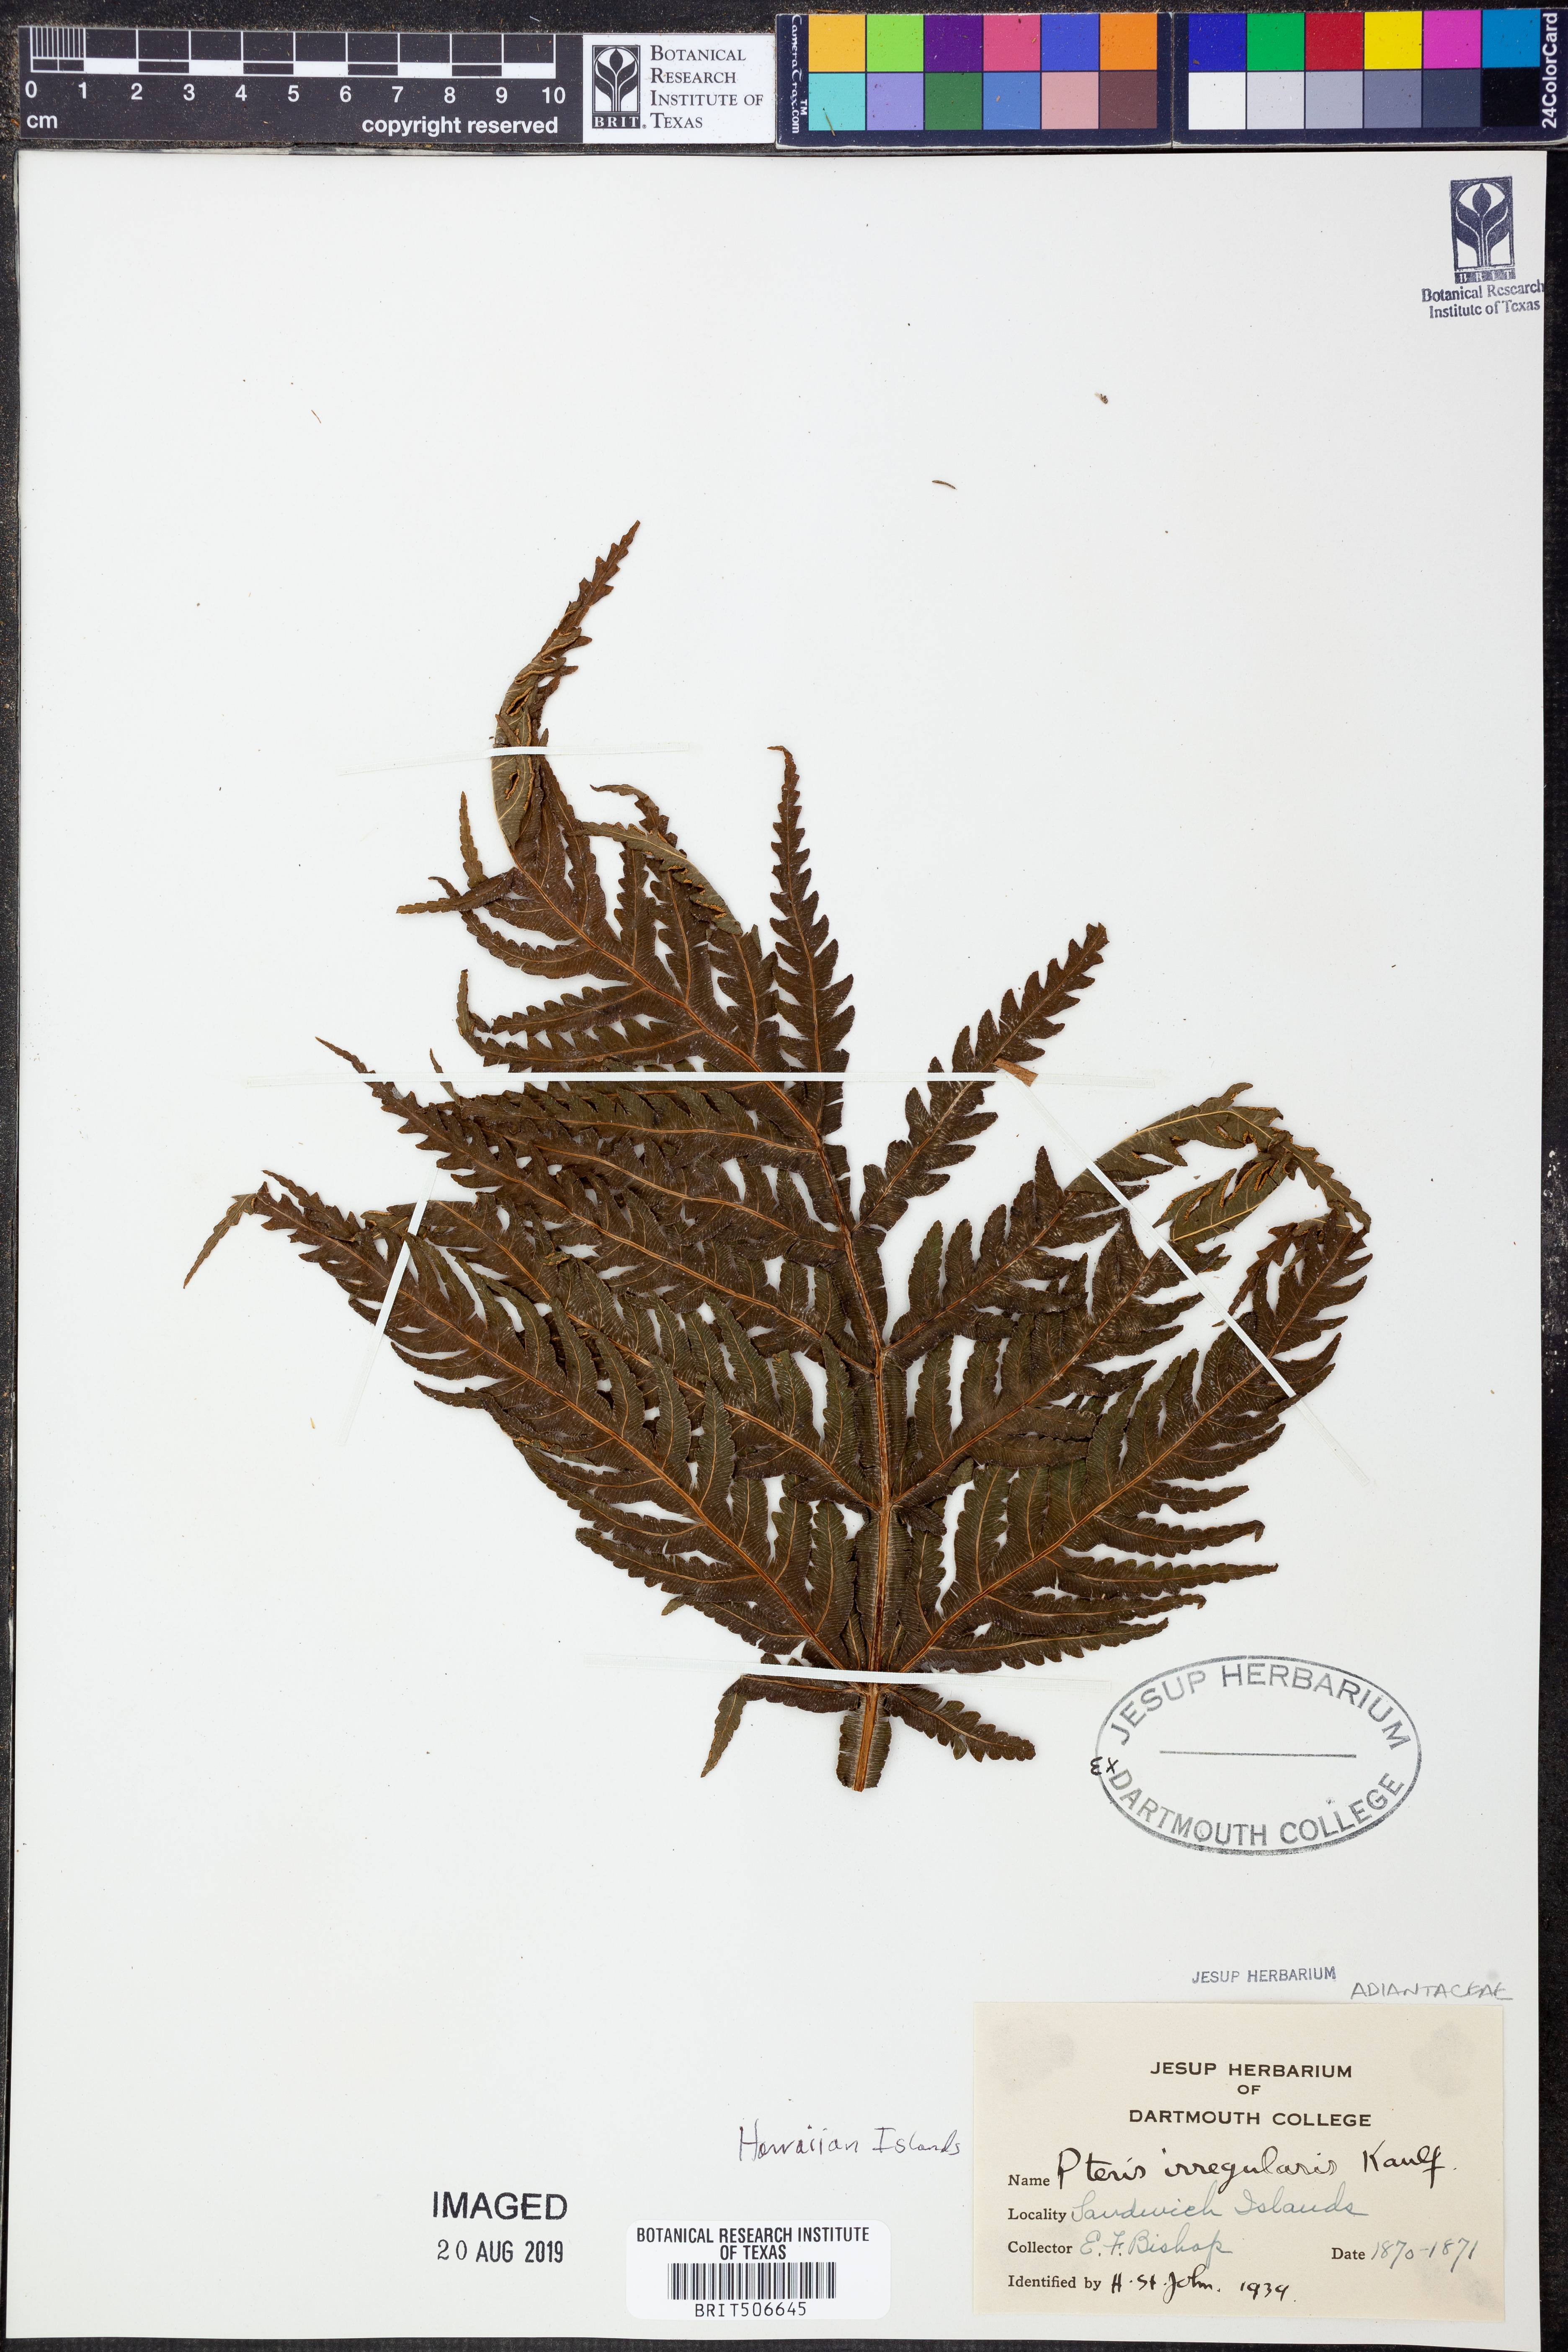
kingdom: Plantae
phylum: Tracheophyta
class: Polypodiopsida
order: Polypodiales
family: Pteridaceae
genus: Pteris
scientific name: Pteris irregularis
